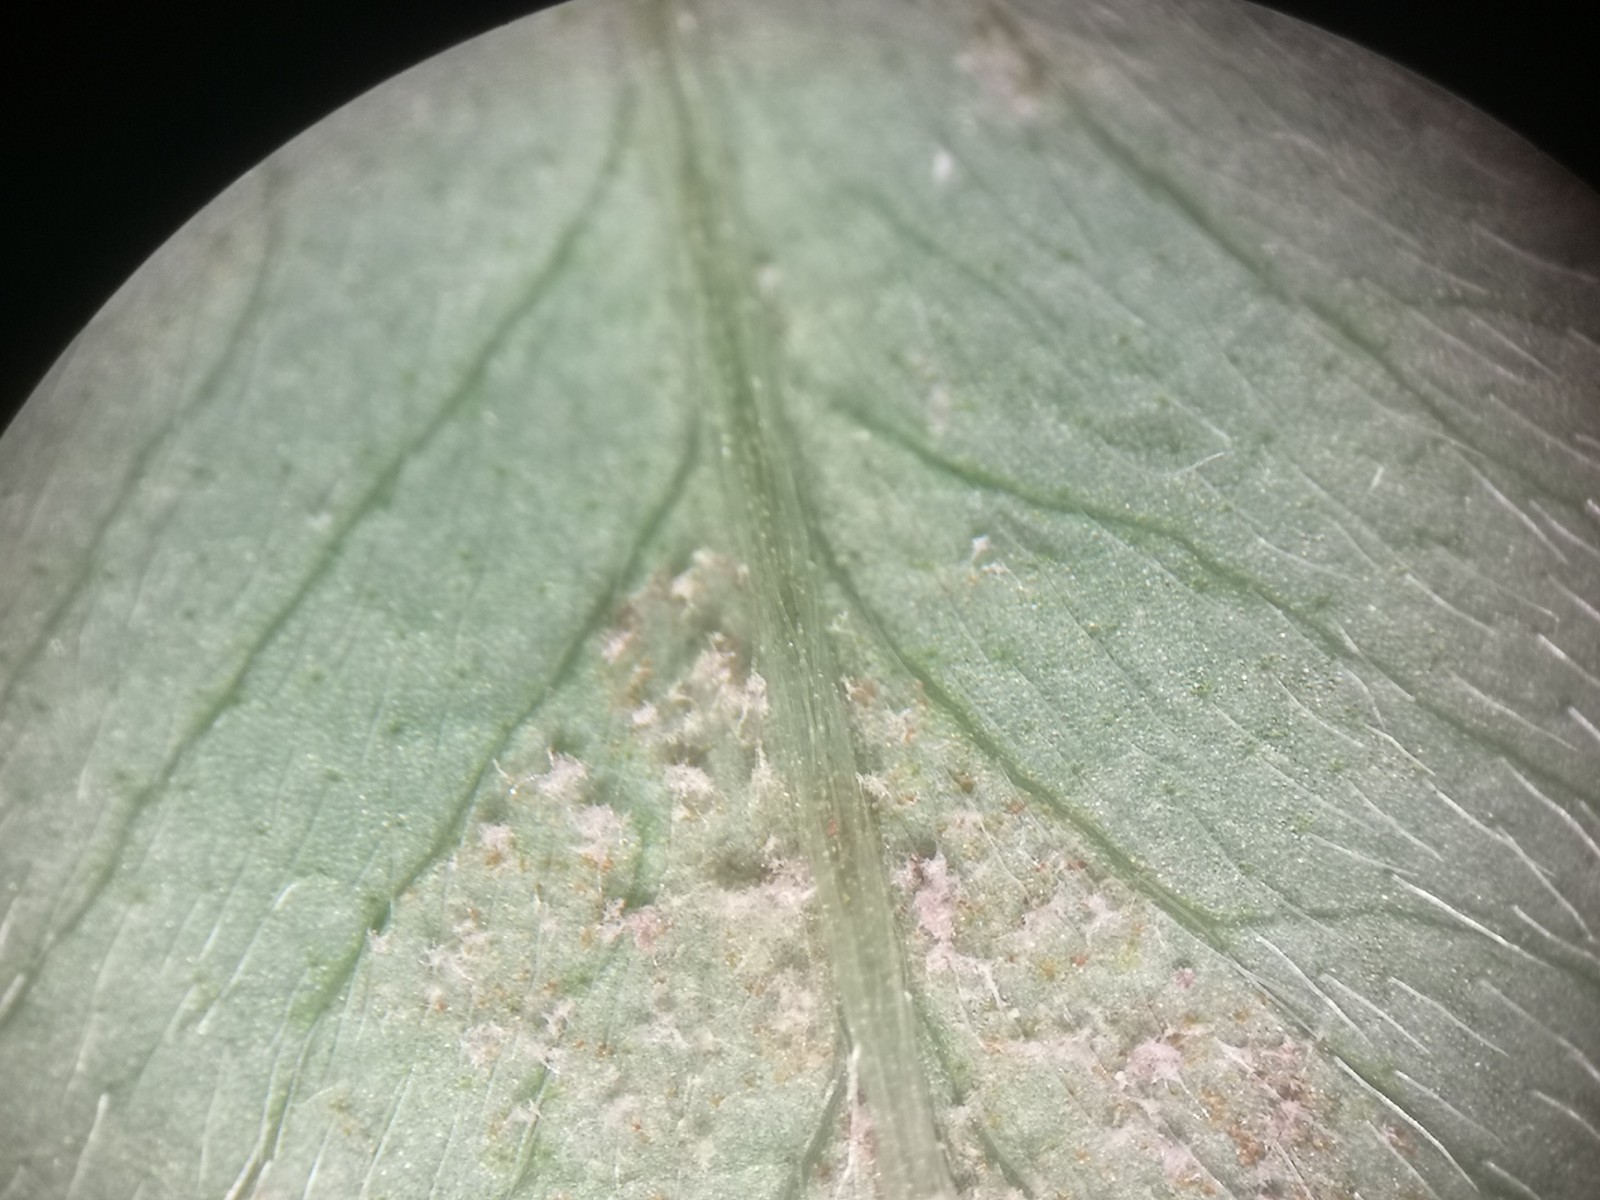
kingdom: Chromista
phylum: Oomycota
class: Peronosporea
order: Peronosporales
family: Peronosporaceae
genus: Peronospora
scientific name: Peronospora trifoliorum
